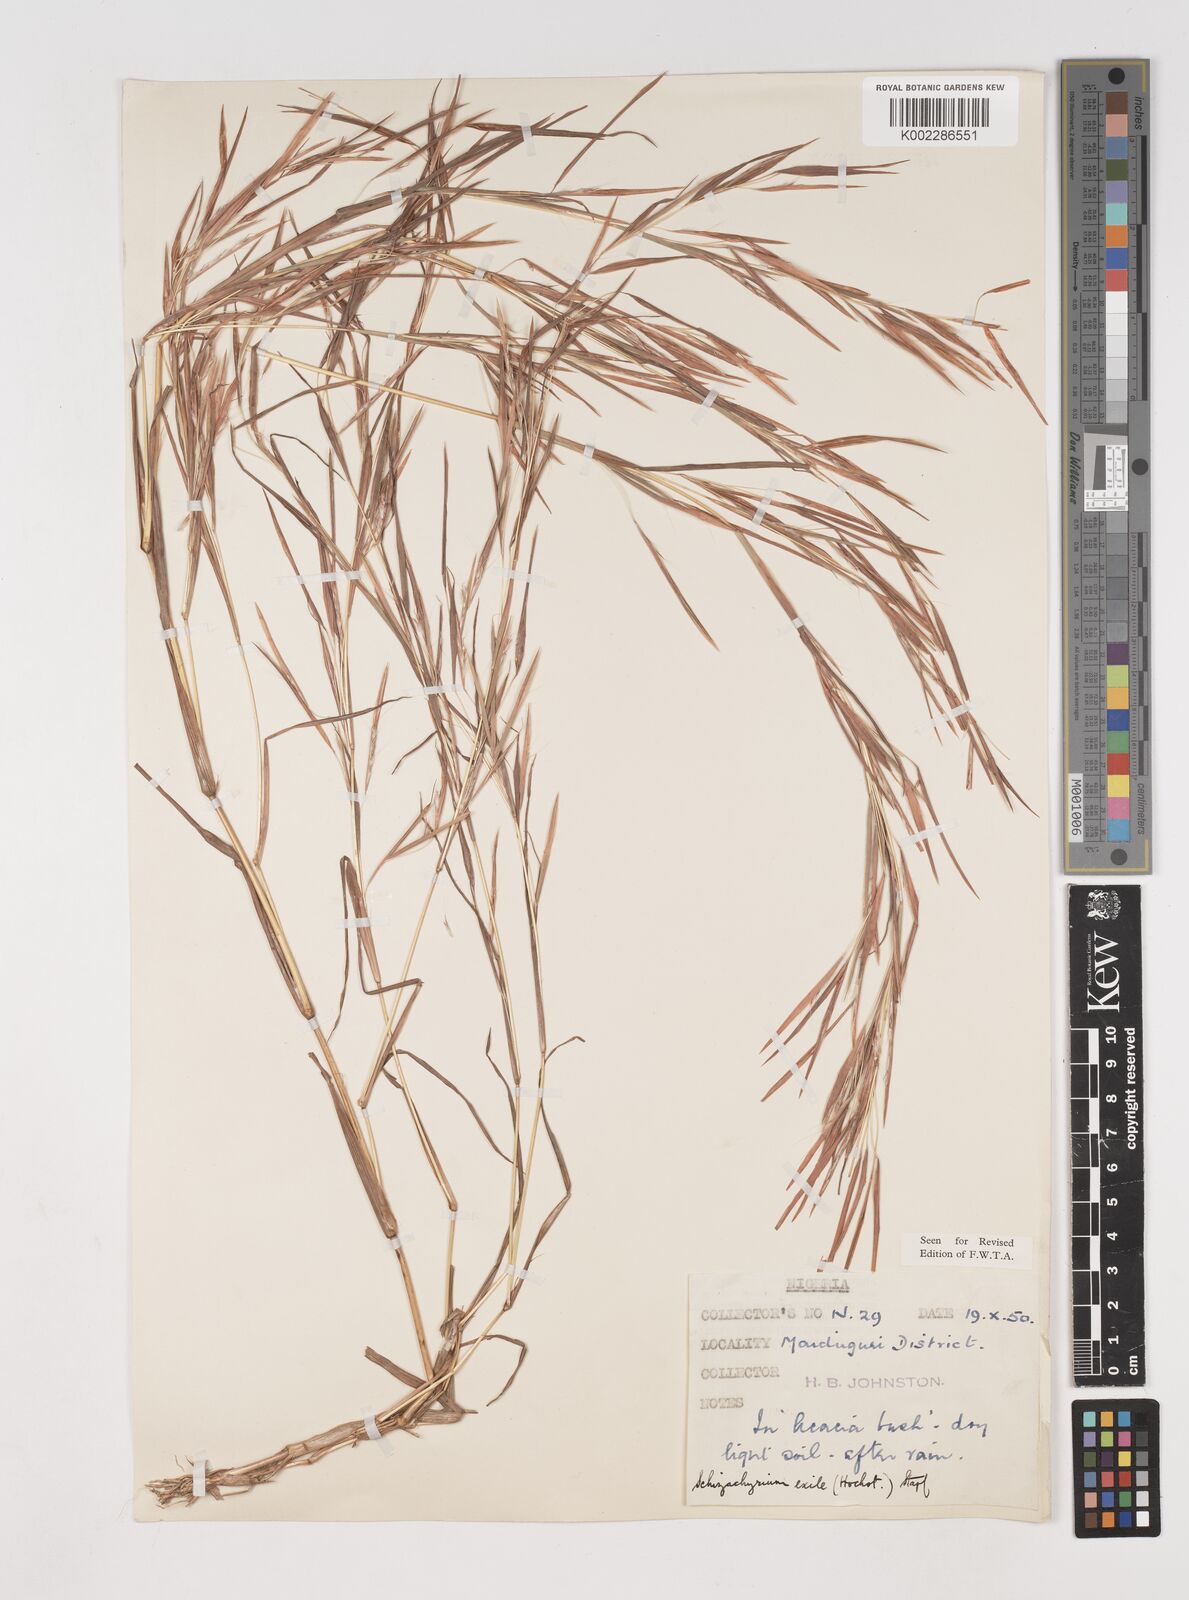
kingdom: Plantae
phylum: Tracheophyta
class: Liliopsida
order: Poales
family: Poaceae
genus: Schizachyrium
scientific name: Schizachyrium exile
